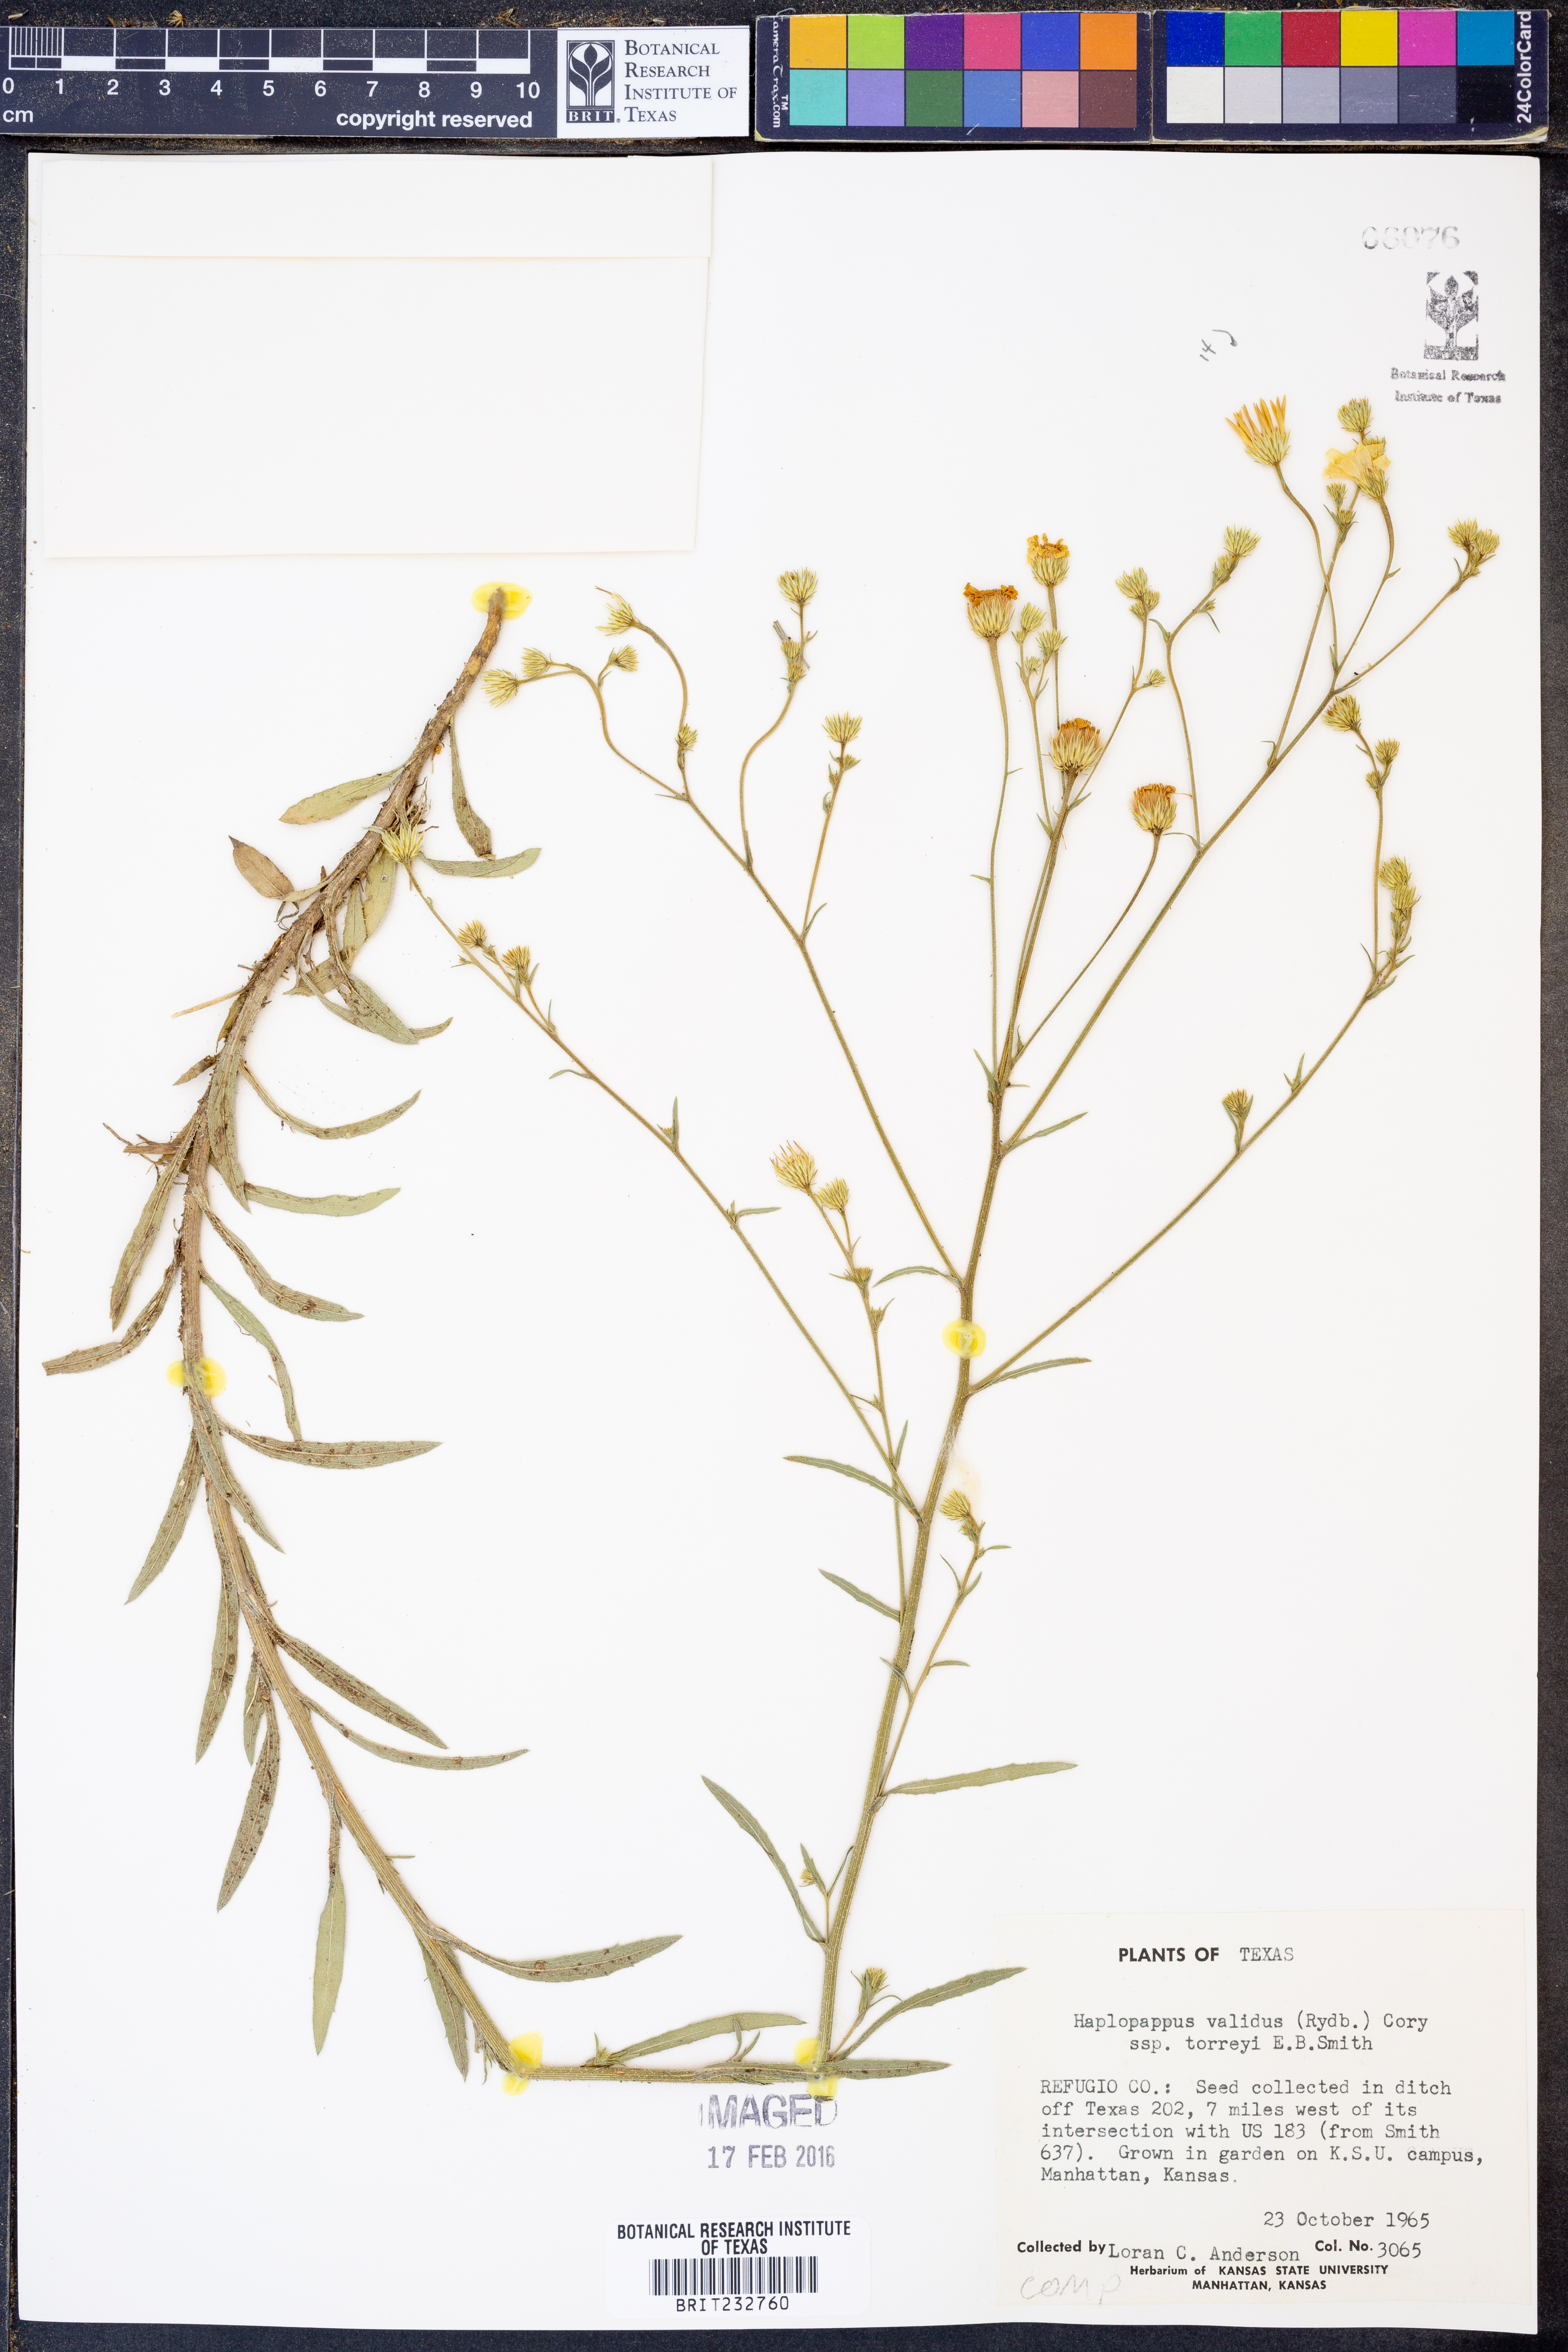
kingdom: Plantae
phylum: Tracheophyta
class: Magnoliopsida
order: Asterales
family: Asteraceae
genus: Croptilon
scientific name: Croptilon hookerianum
